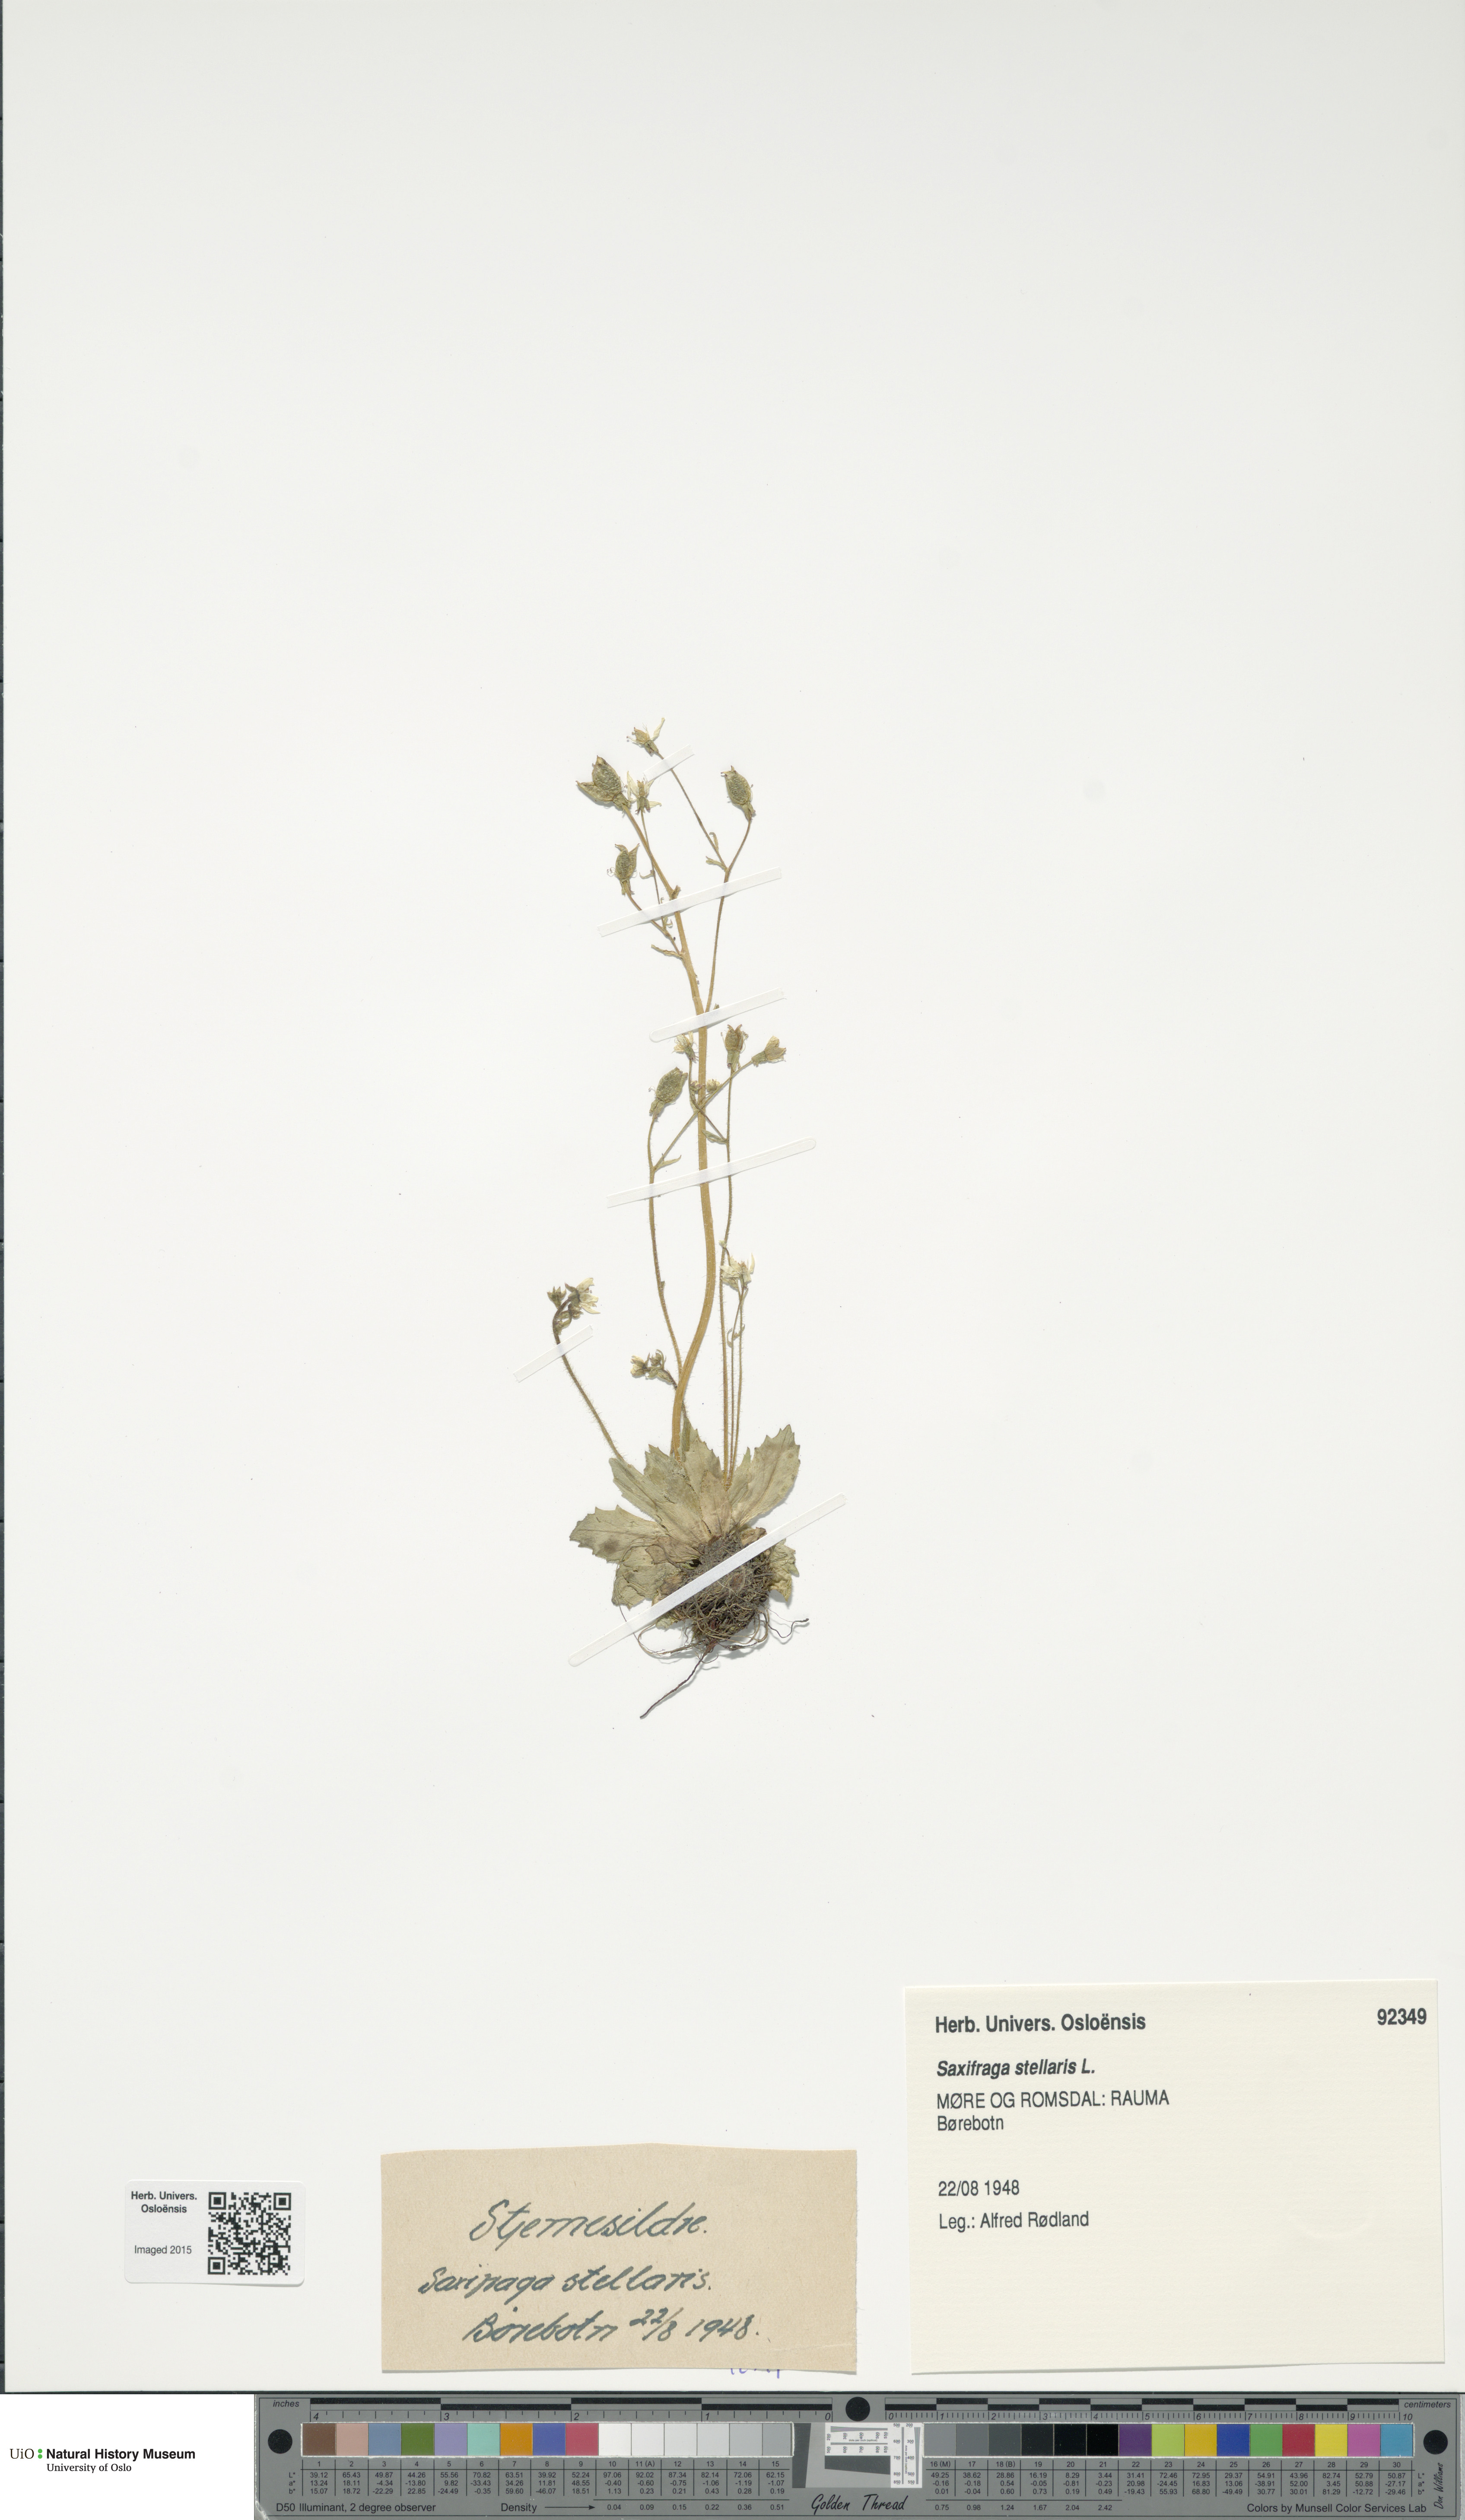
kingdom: Plantae
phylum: Tracheophyta
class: Magnoliopsida
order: Saxifragales
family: Saxifragaceae
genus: Micranthes
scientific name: Micranthes stellaris
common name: Starry saxifrage
